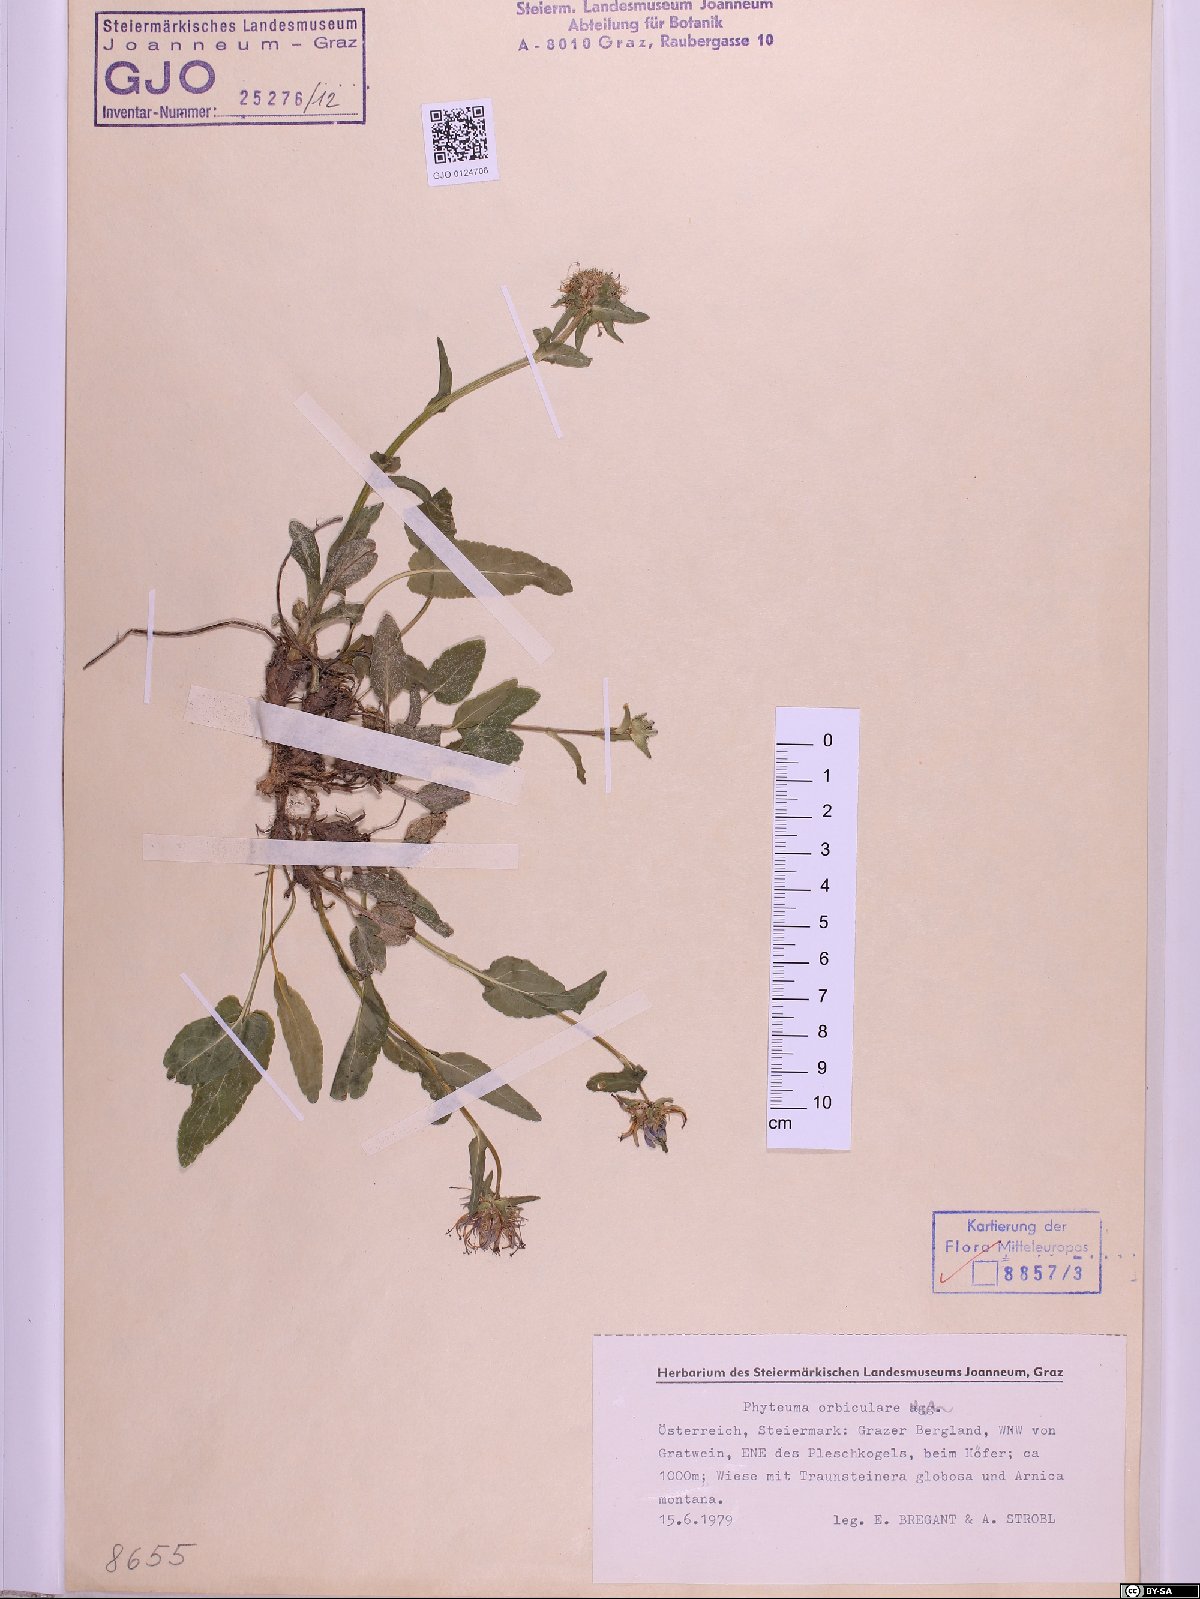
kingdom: Plantae
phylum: Tracheophyta
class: Magnoliopsida
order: Asterales
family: Campanulaceae
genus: Phyteuma
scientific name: Phyteuma orbiculare
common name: Round-headed rampion
